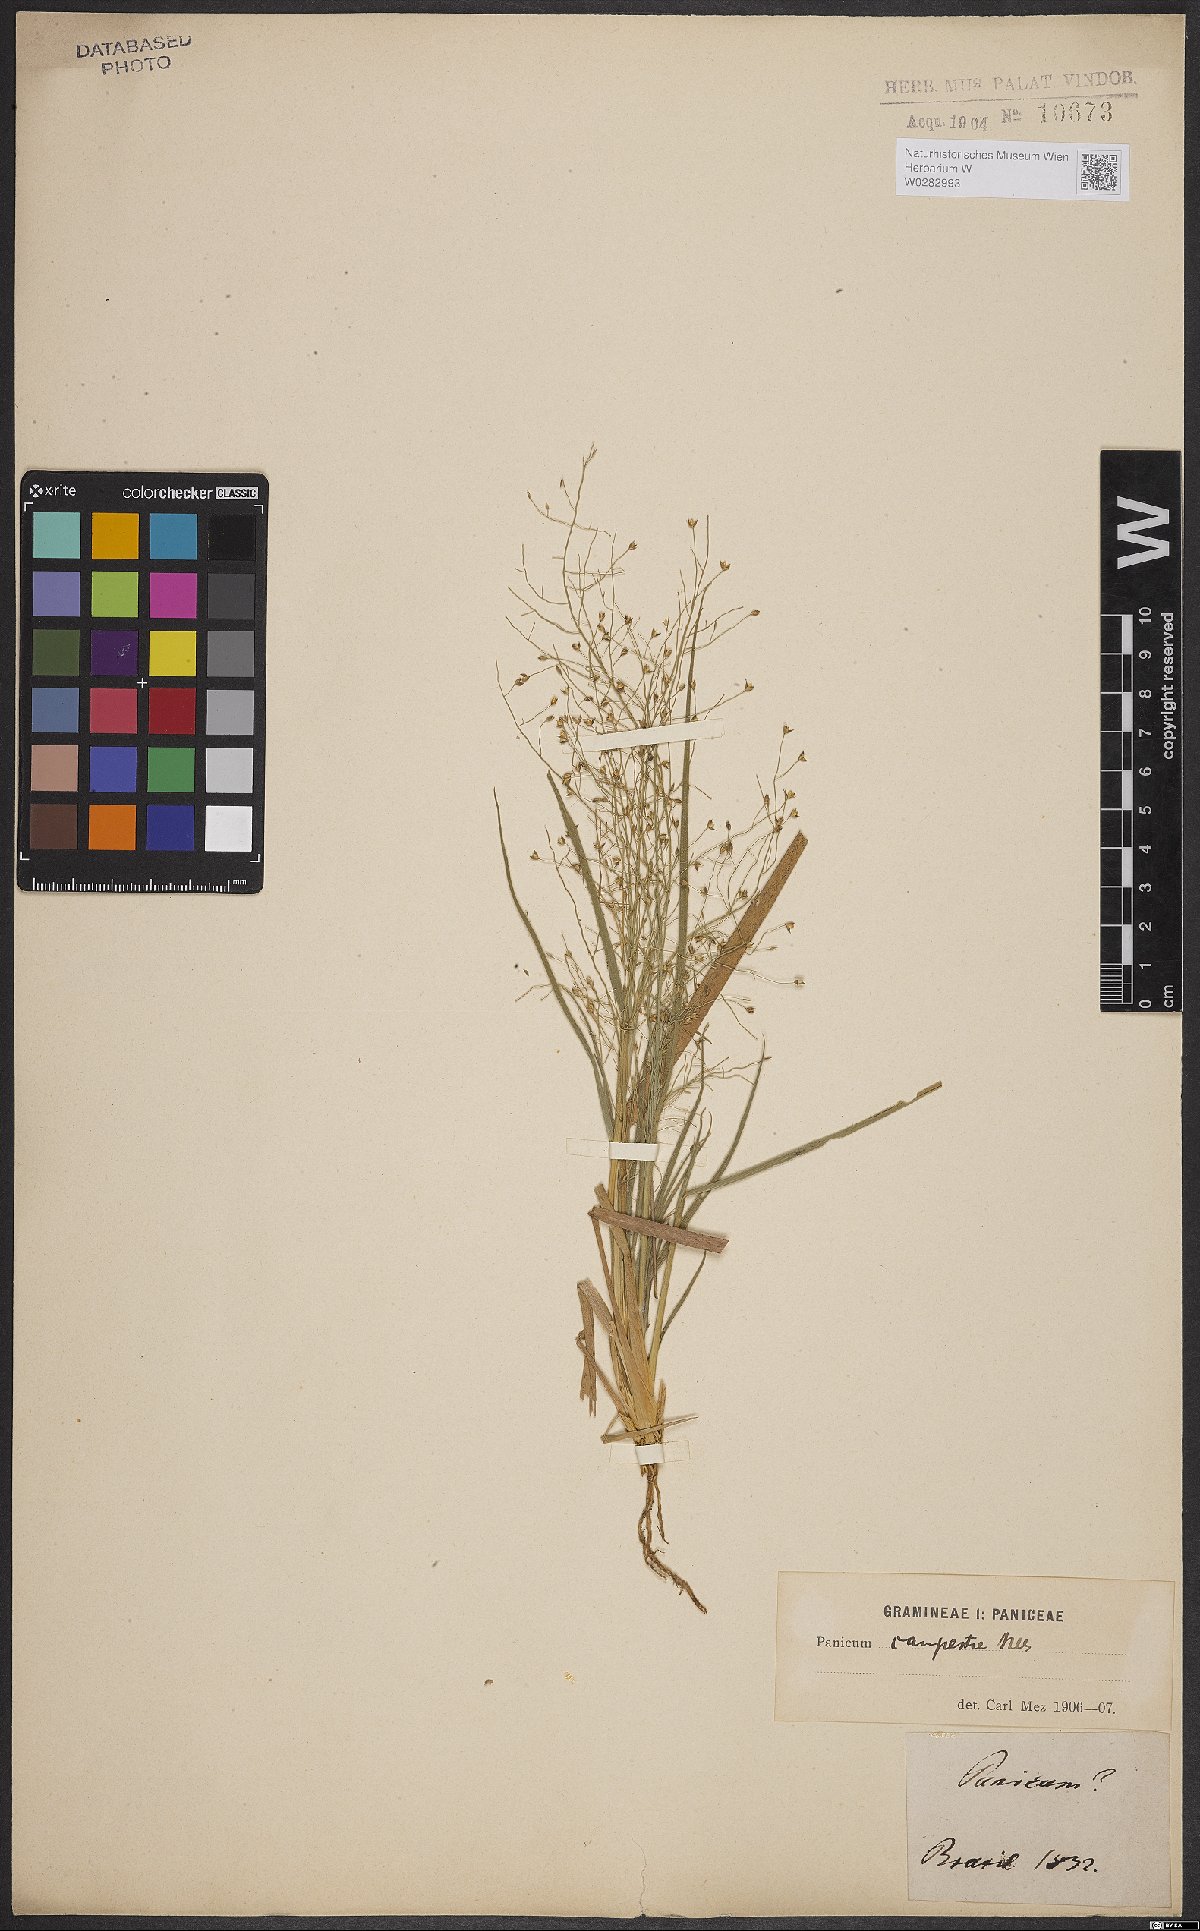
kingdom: Plantae
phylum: Tracheophyta
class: Liliopsida
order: Poales
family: Poaceae
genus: Panicum
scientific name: Panicum peladoense
